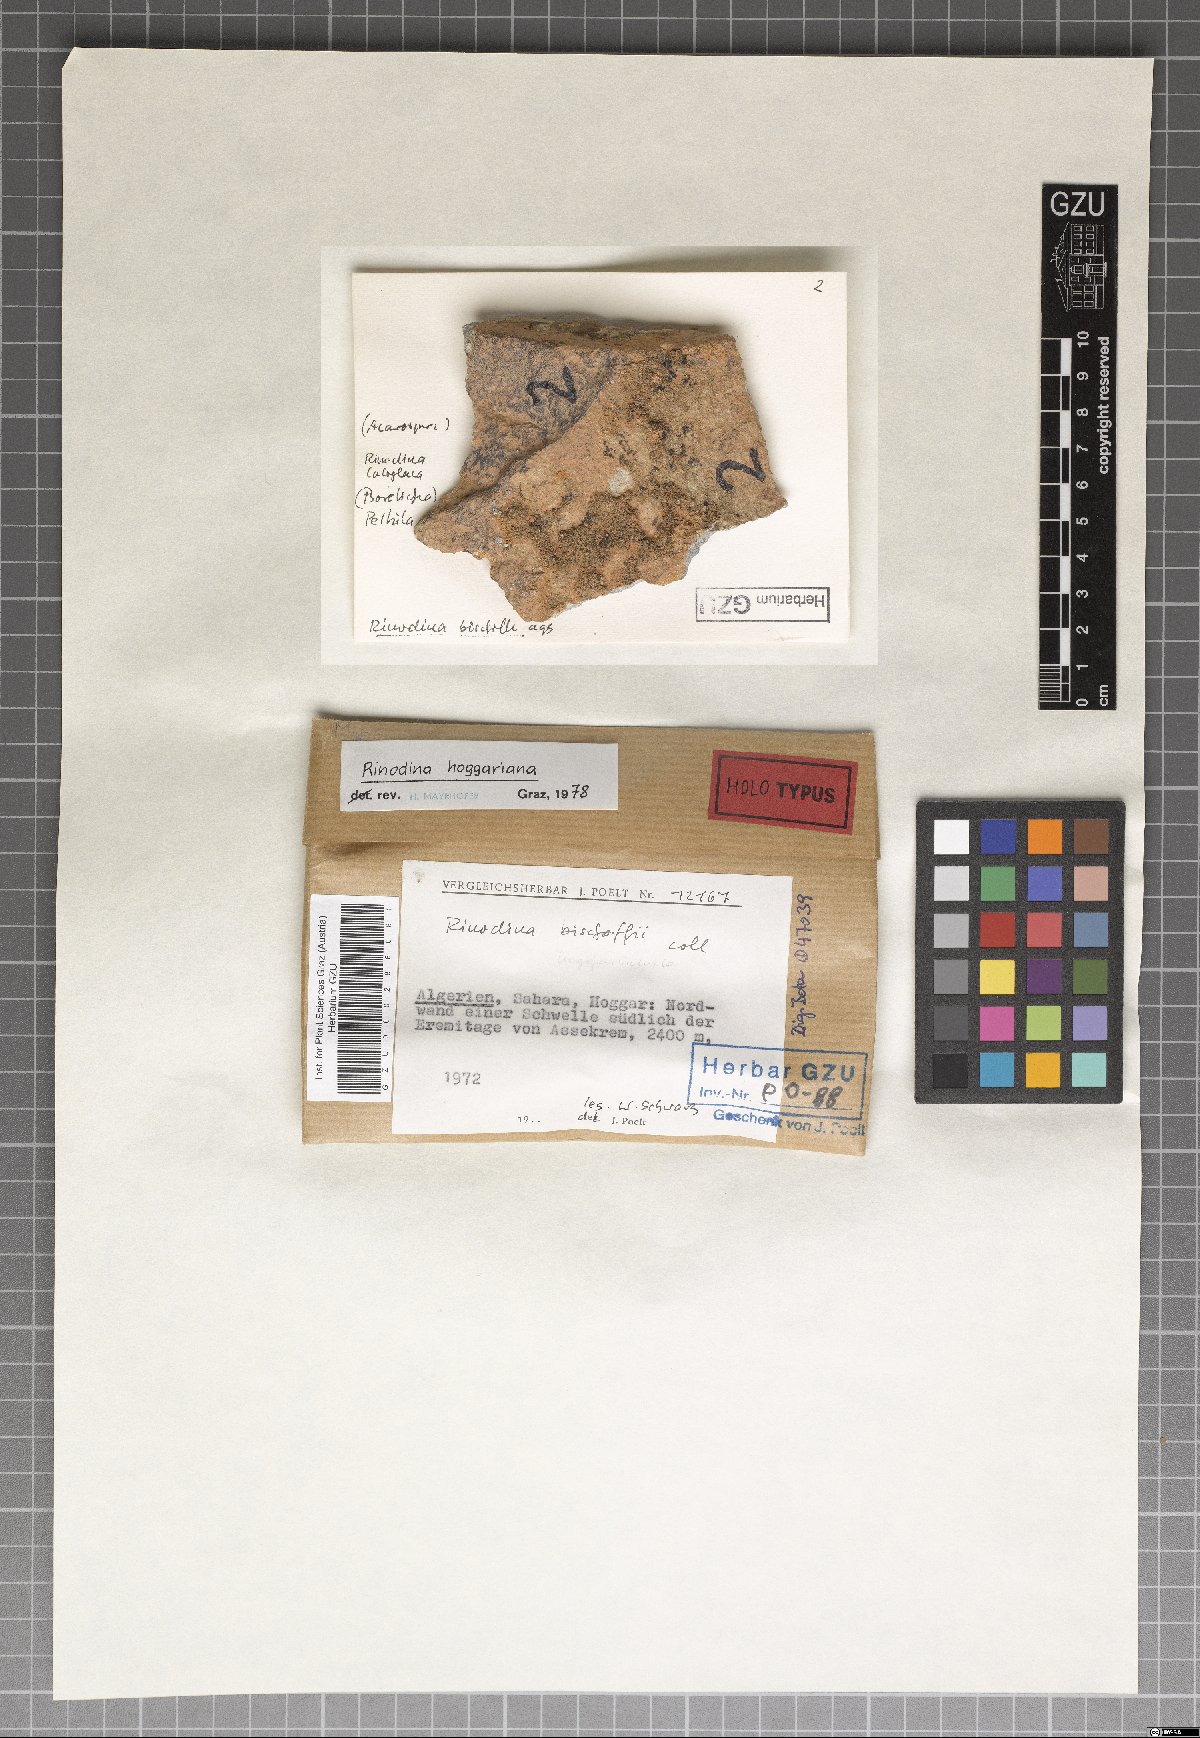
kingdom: Fungi
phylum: Ascomycota
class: Lecanoromycetes
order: Caliciales
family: Physciaceae
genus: Rinodina
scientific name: Rinodina
